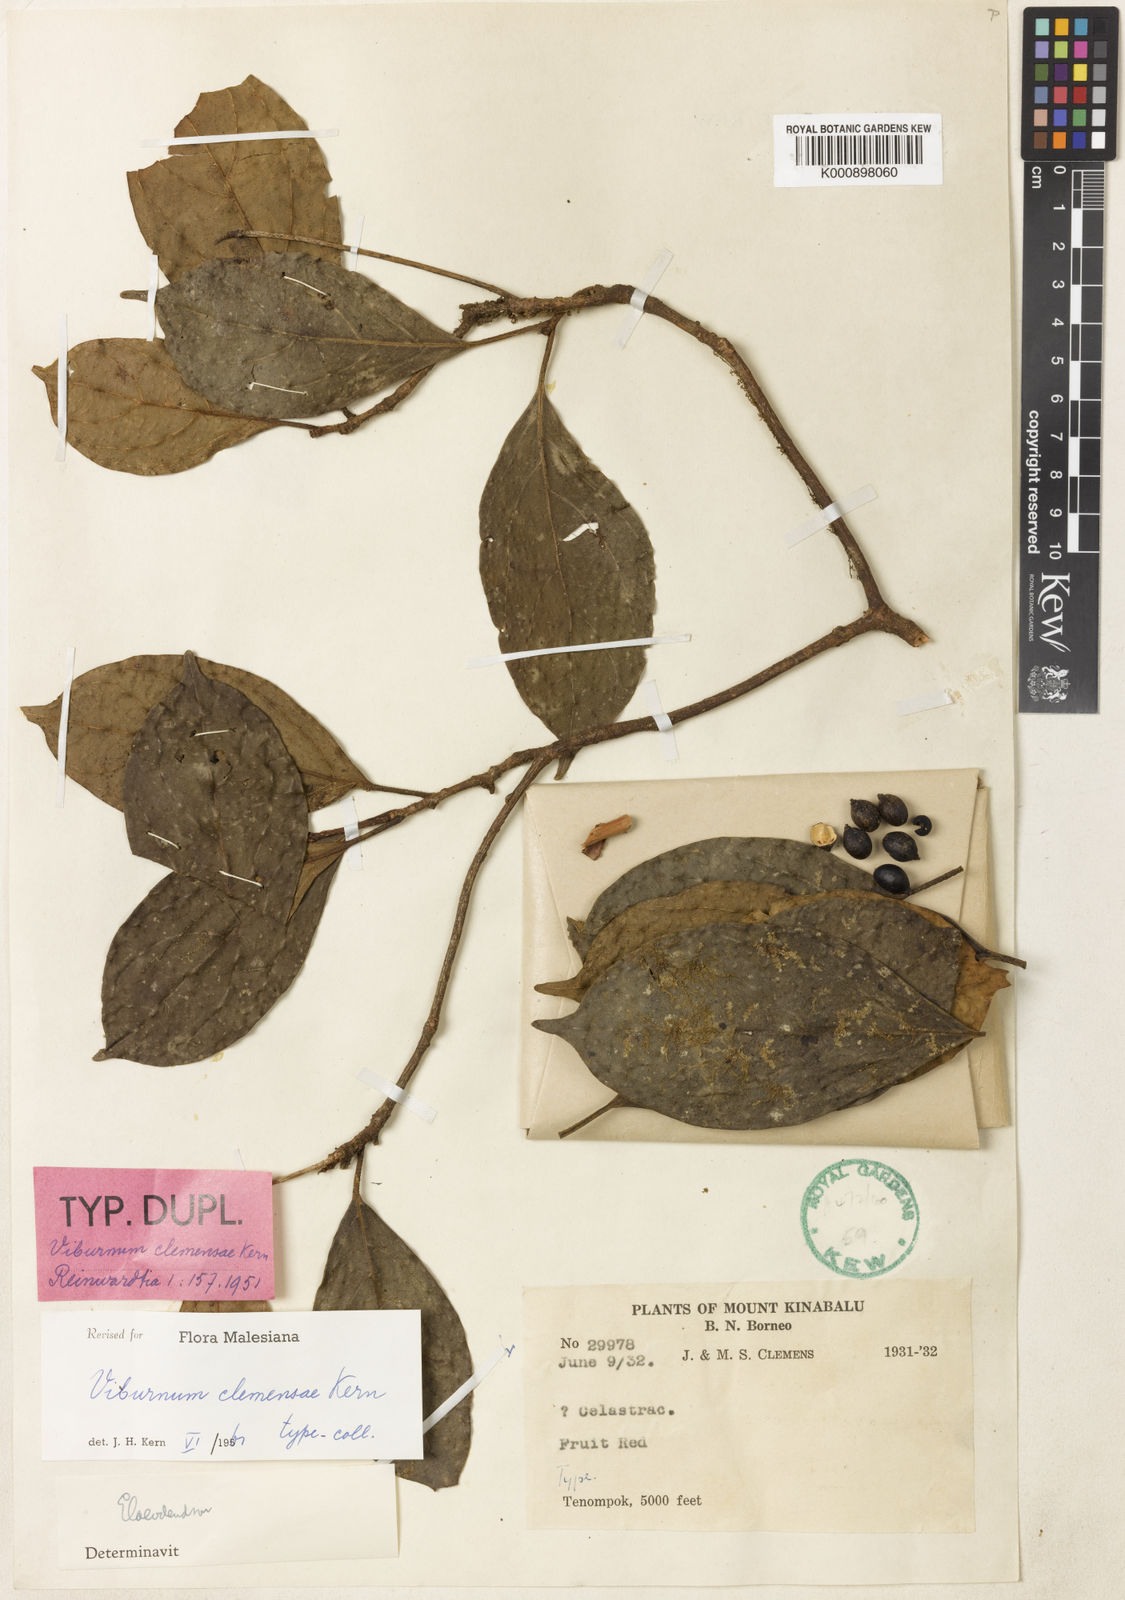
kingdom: Plantae
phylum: Tracheophyta
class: Magnoliopsida
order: Dipsacales
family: Viburnaceae
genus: Viburnum
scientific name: Viburnum clemensiae
